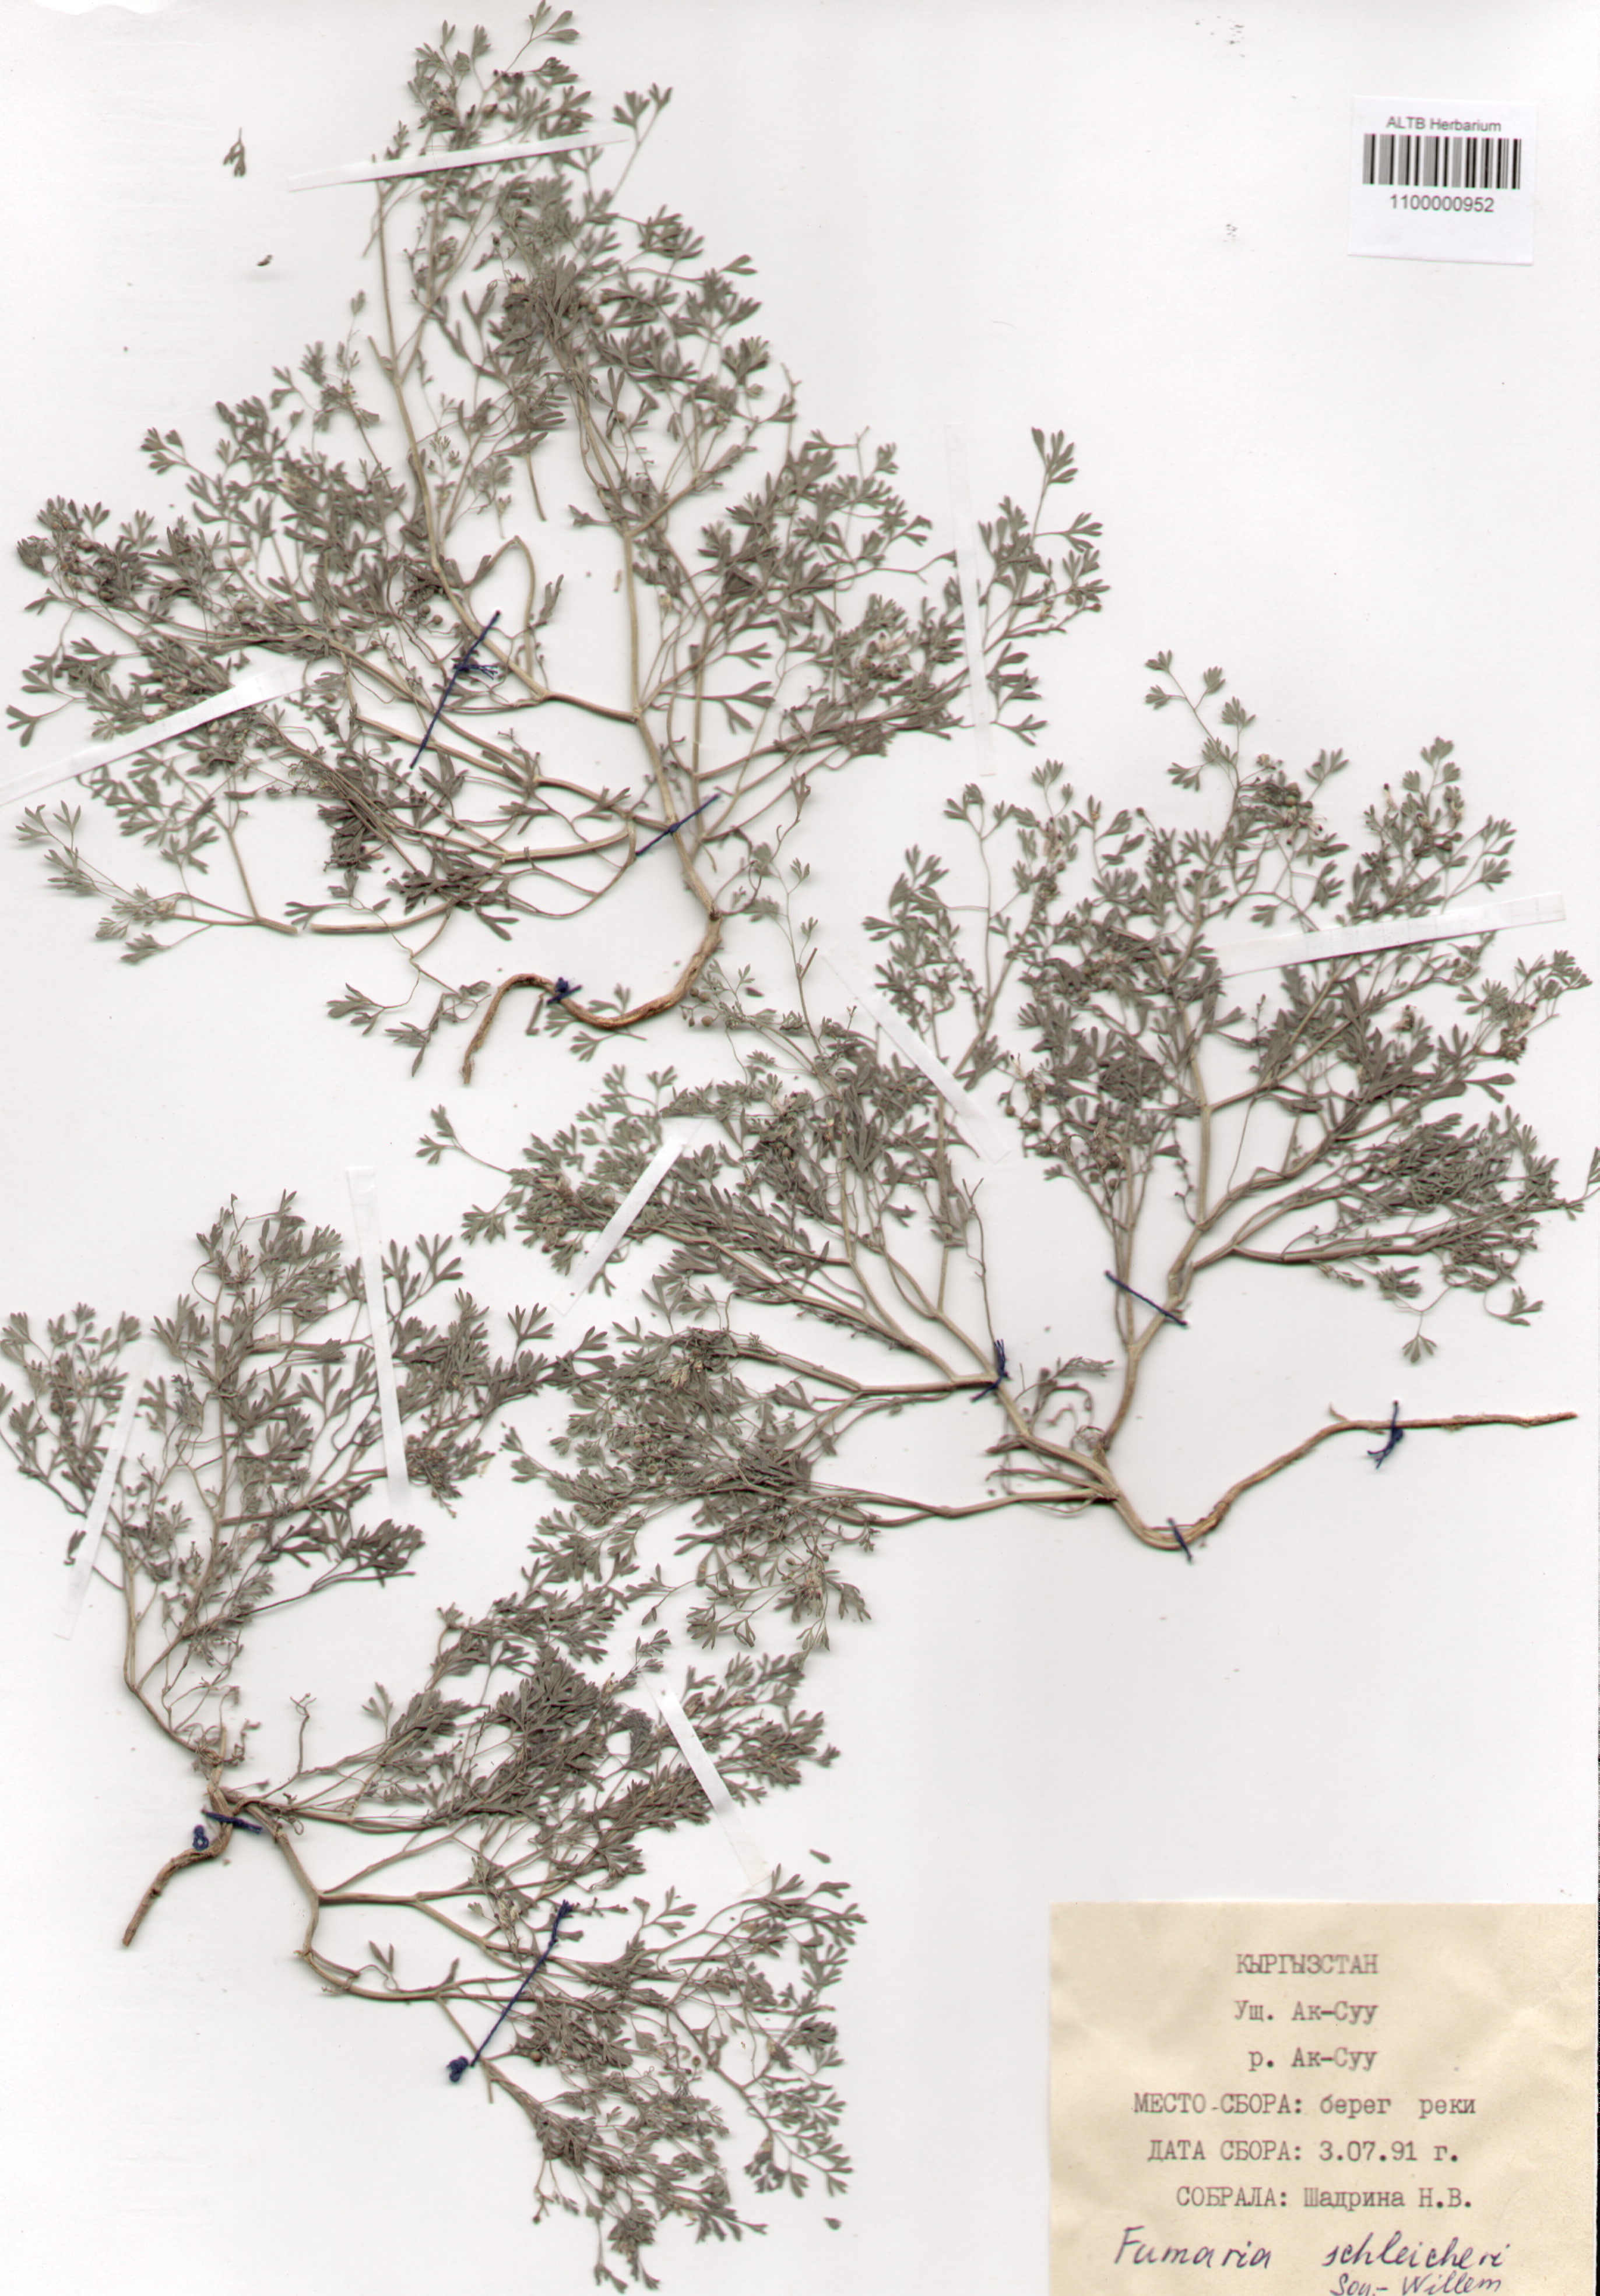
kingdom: Plantae
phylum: Tracheophyta
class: Magnoliopsida
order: Ranunculales
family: Papaveraceae
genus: Fumaria
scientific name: Fumaria schleicheri
